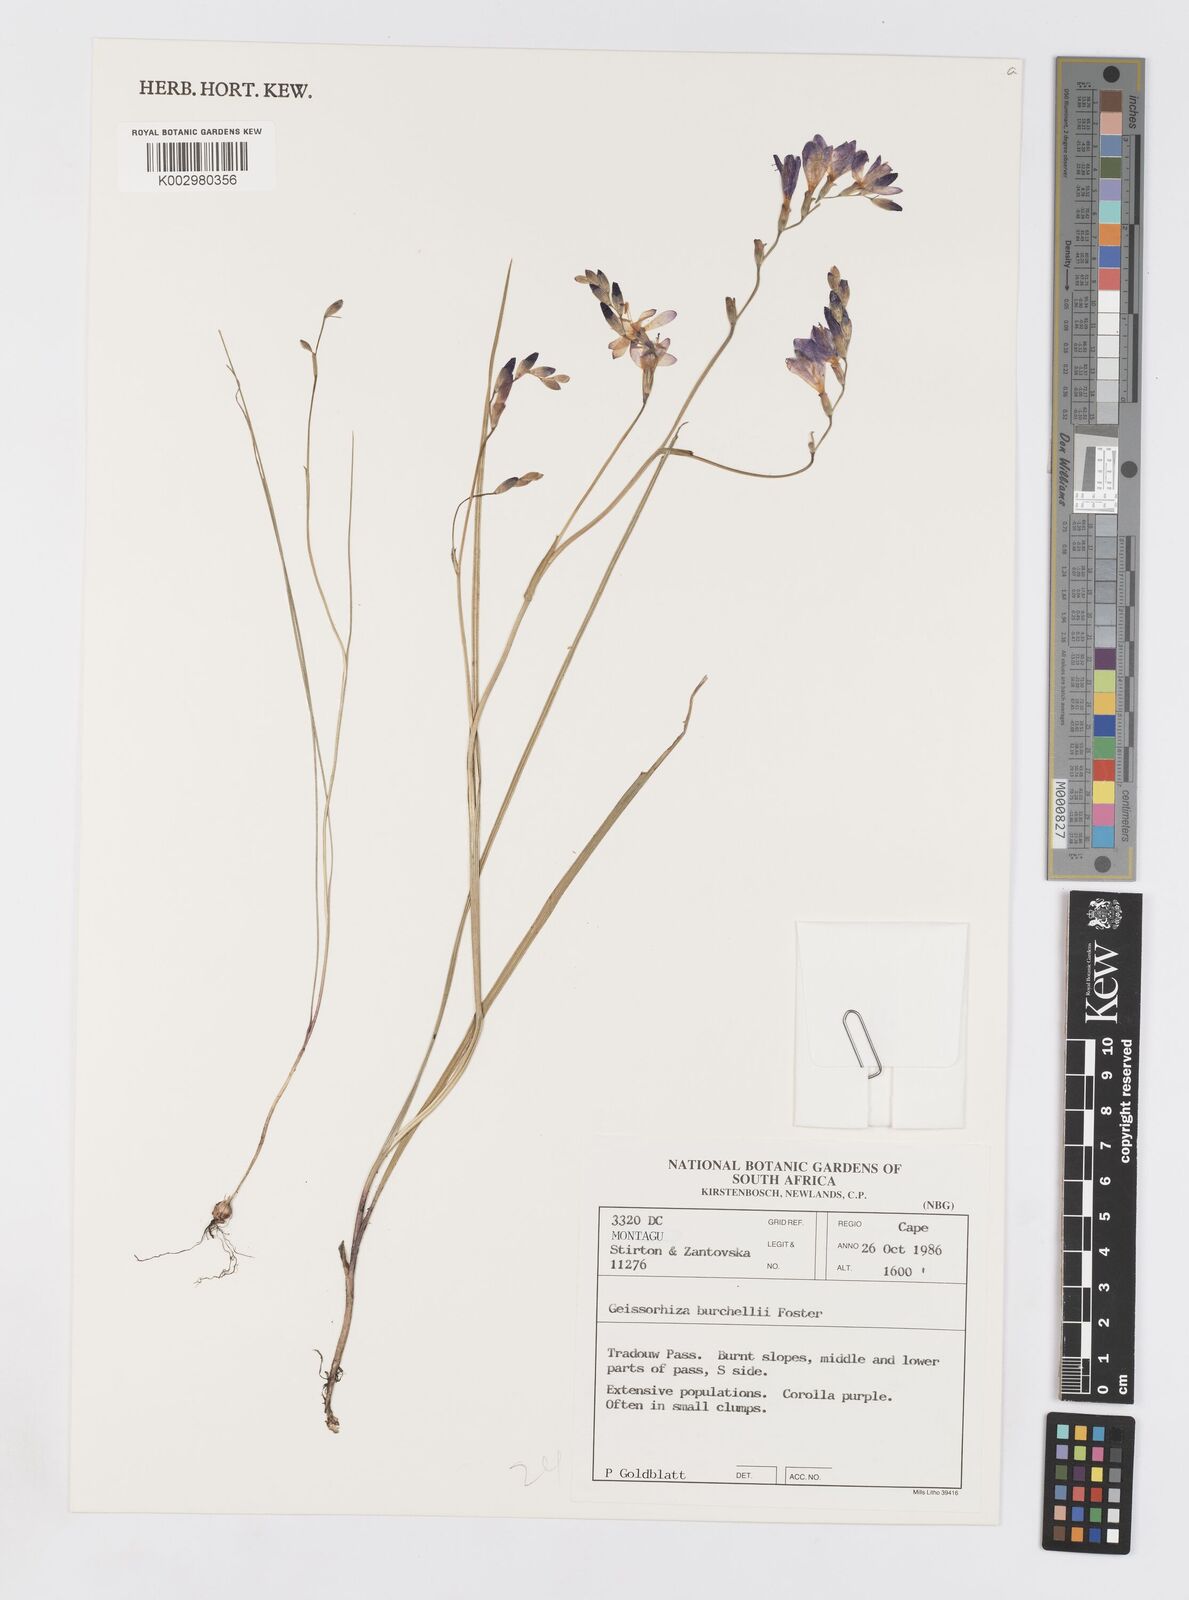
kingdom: Plantae
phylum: Tracheophyta
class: Liliopsida
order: Asparagales
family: Iridaceae
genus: Geissorhiza
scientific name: Geissorhiza burchellii
